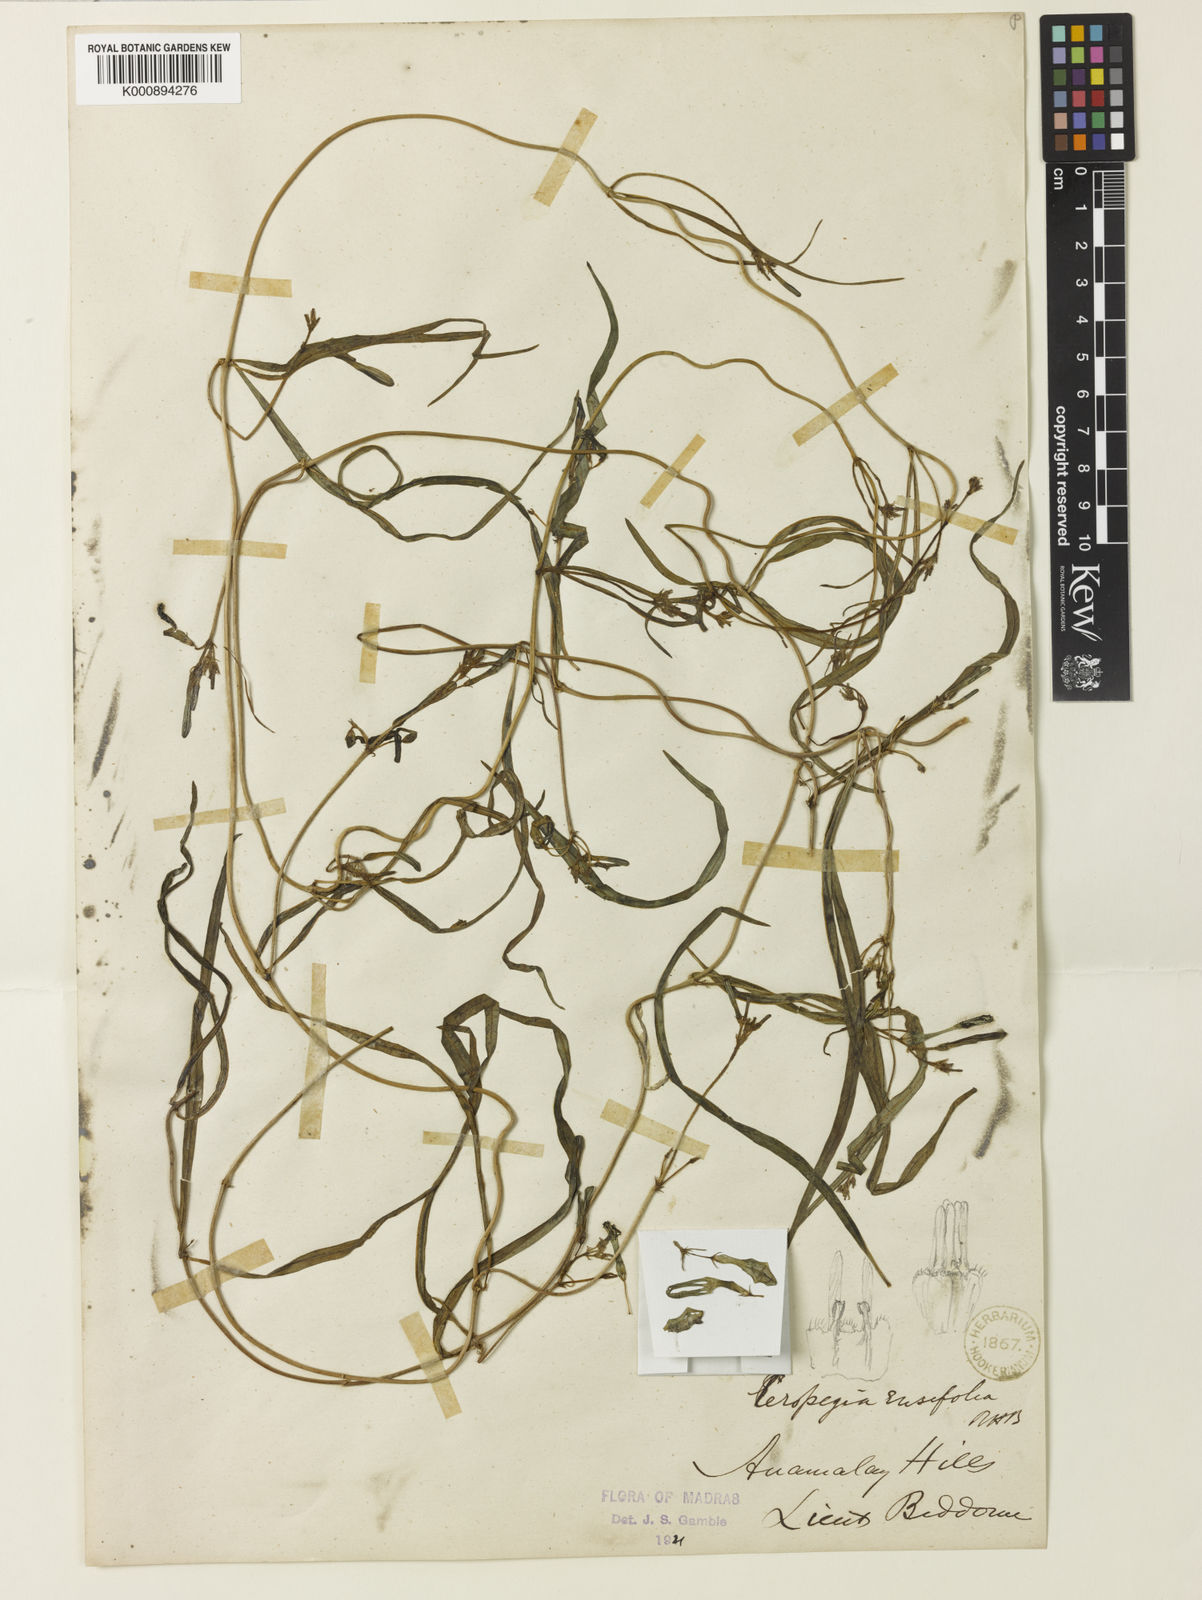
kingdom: Plantae
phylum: Tracheophyta
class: Magnoliopsida
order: Gentianales
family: Apocynaceae
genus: Ceropegia
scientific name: Ceropegia ciliata
